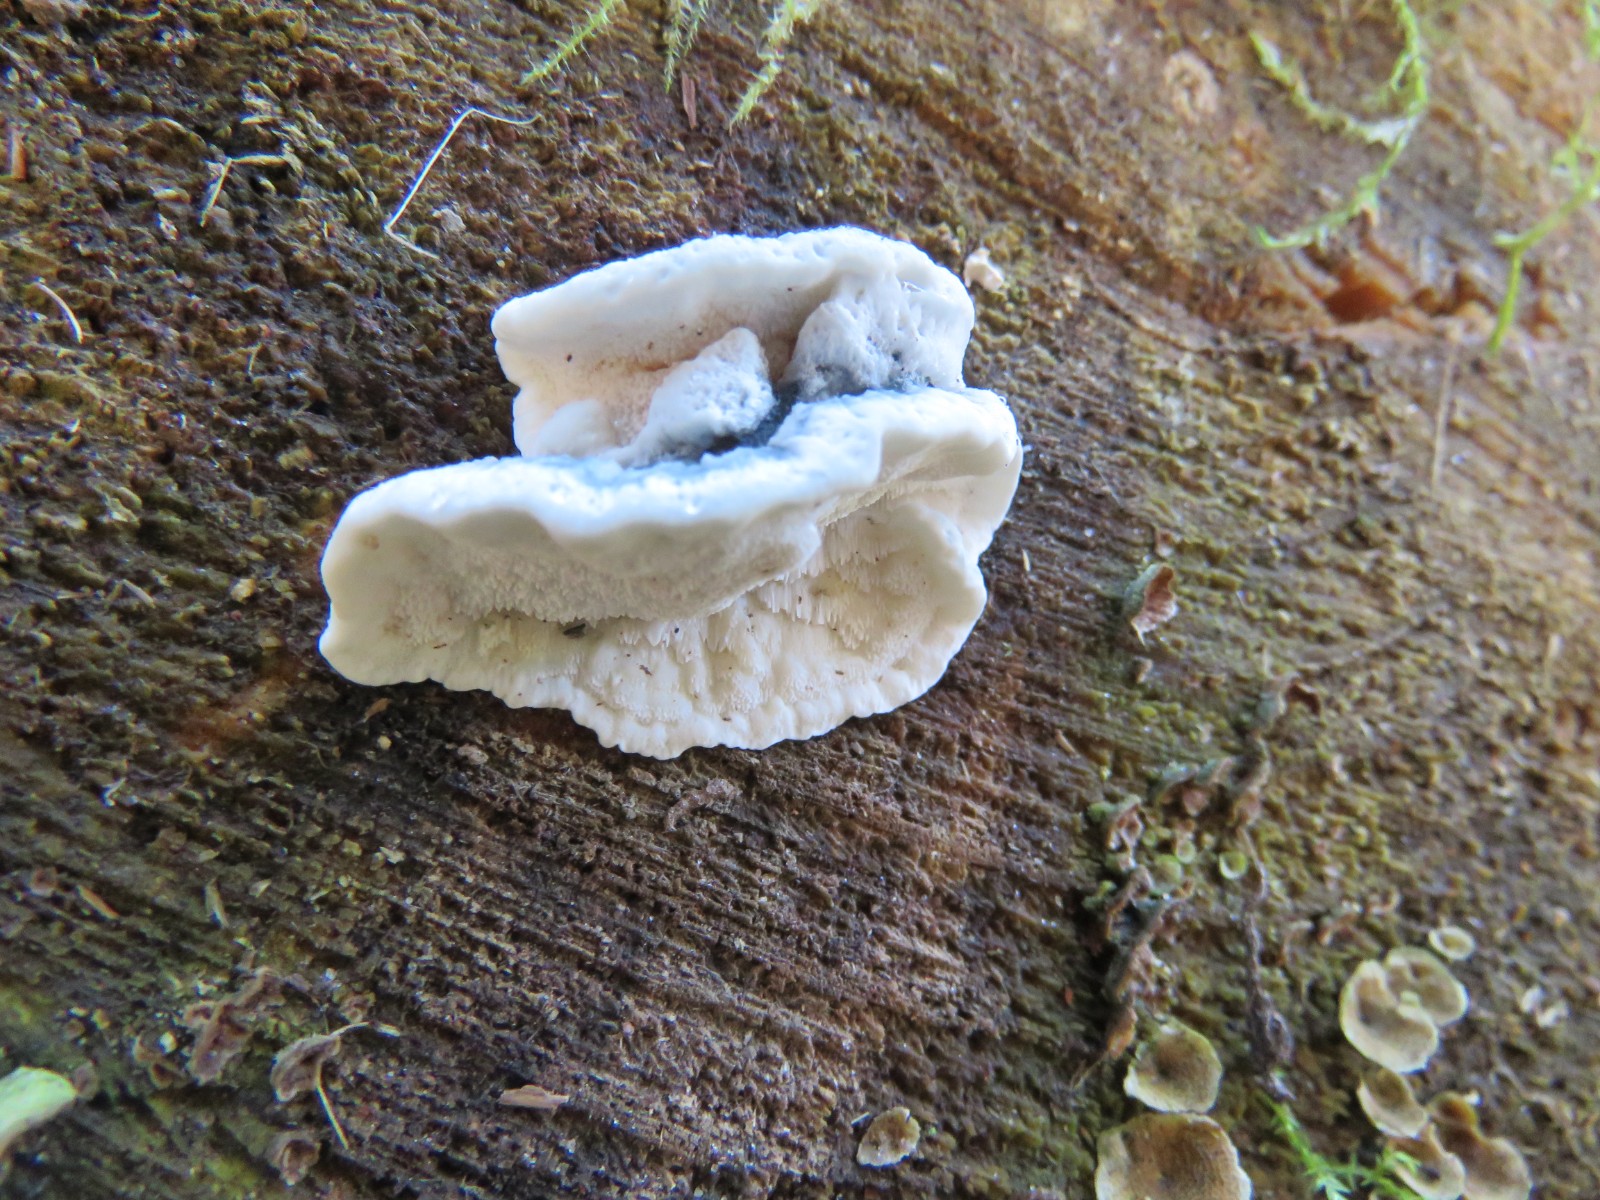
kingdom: Fungi
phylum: Basidiomycota
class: Agaricomycetes
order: Polyporales
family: Polyporaceae
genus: Cyanosporus
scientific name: Cyanosporus caesius
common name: blålig kødporesvamp
